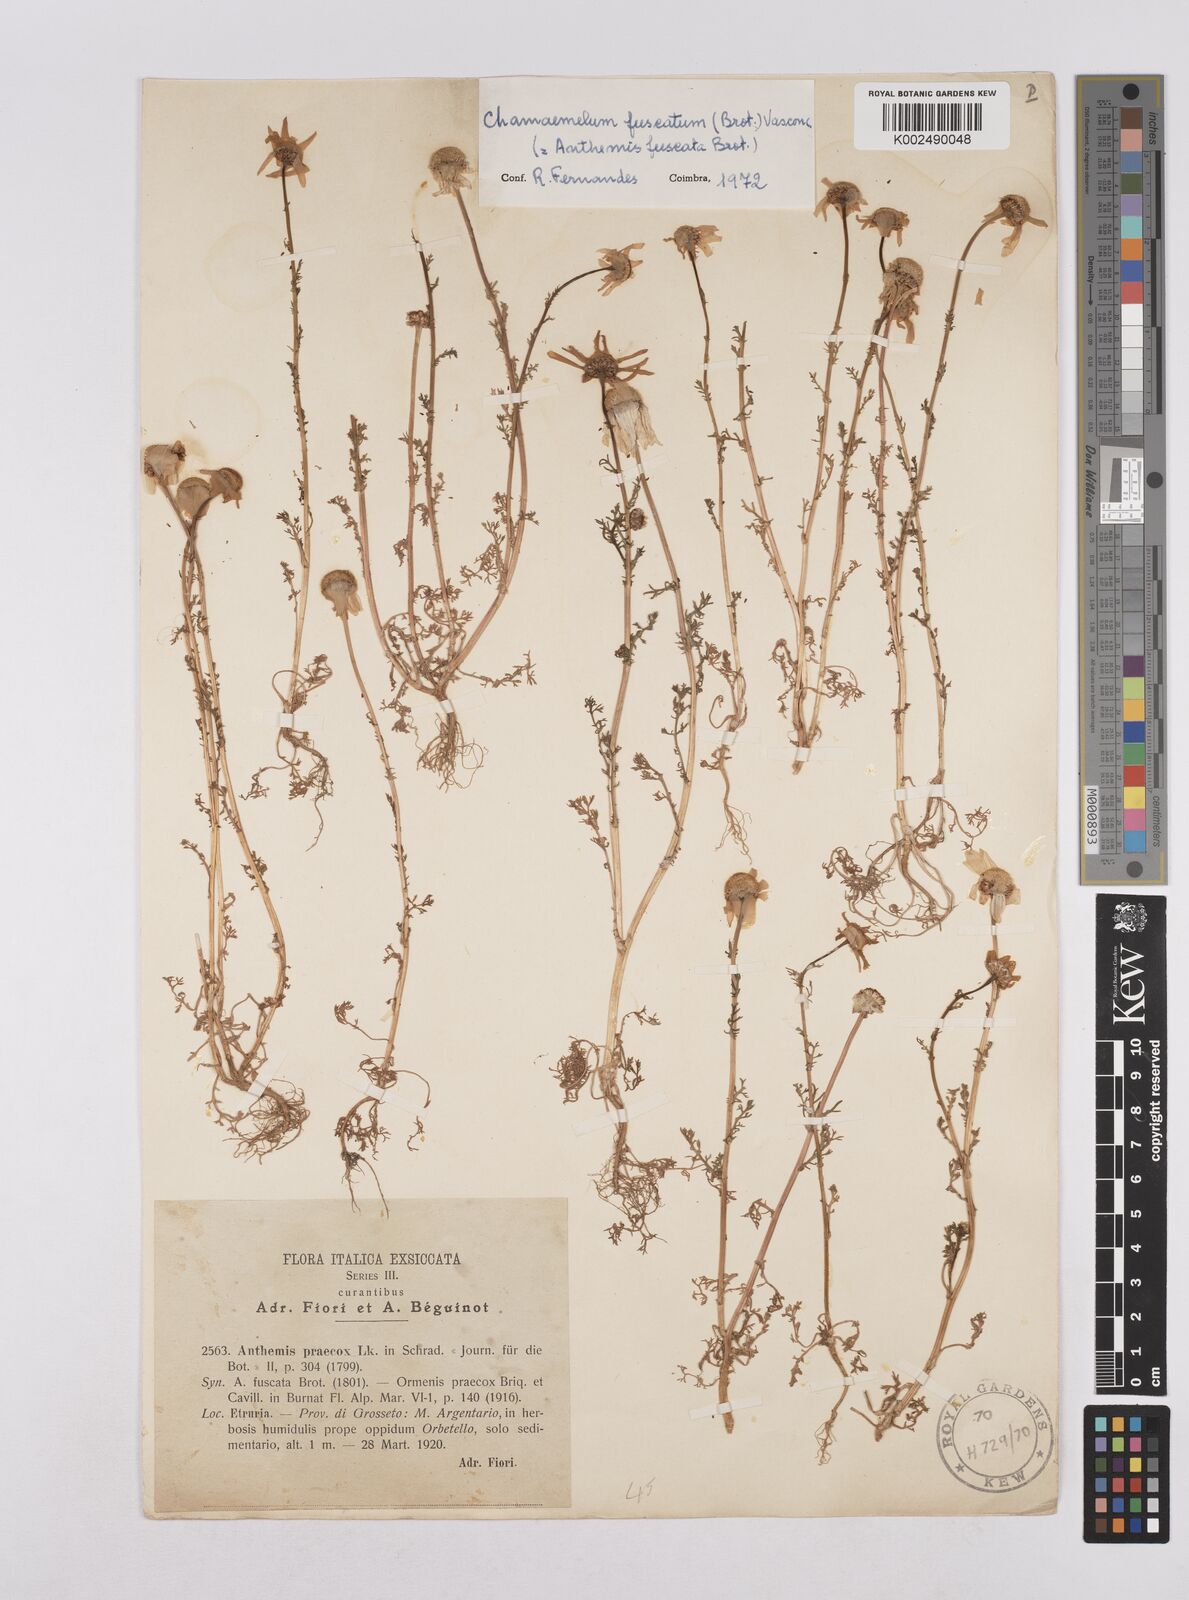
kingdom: Plantae
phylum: Tracheophyta
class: Magnoliopsida
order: Asterales
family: Asteraceae
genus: Chamaemelum
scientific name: Chamaemelum fuscatum
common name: Chamomile
